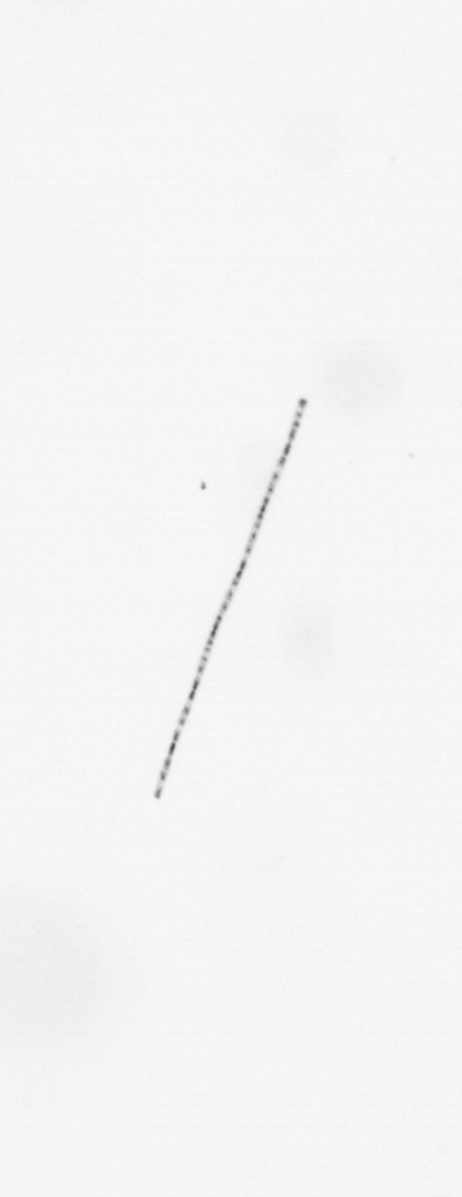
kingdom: Chromista
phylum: Ochrophyta
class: Bacillariophyceae
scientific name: Bacillariophyceae
